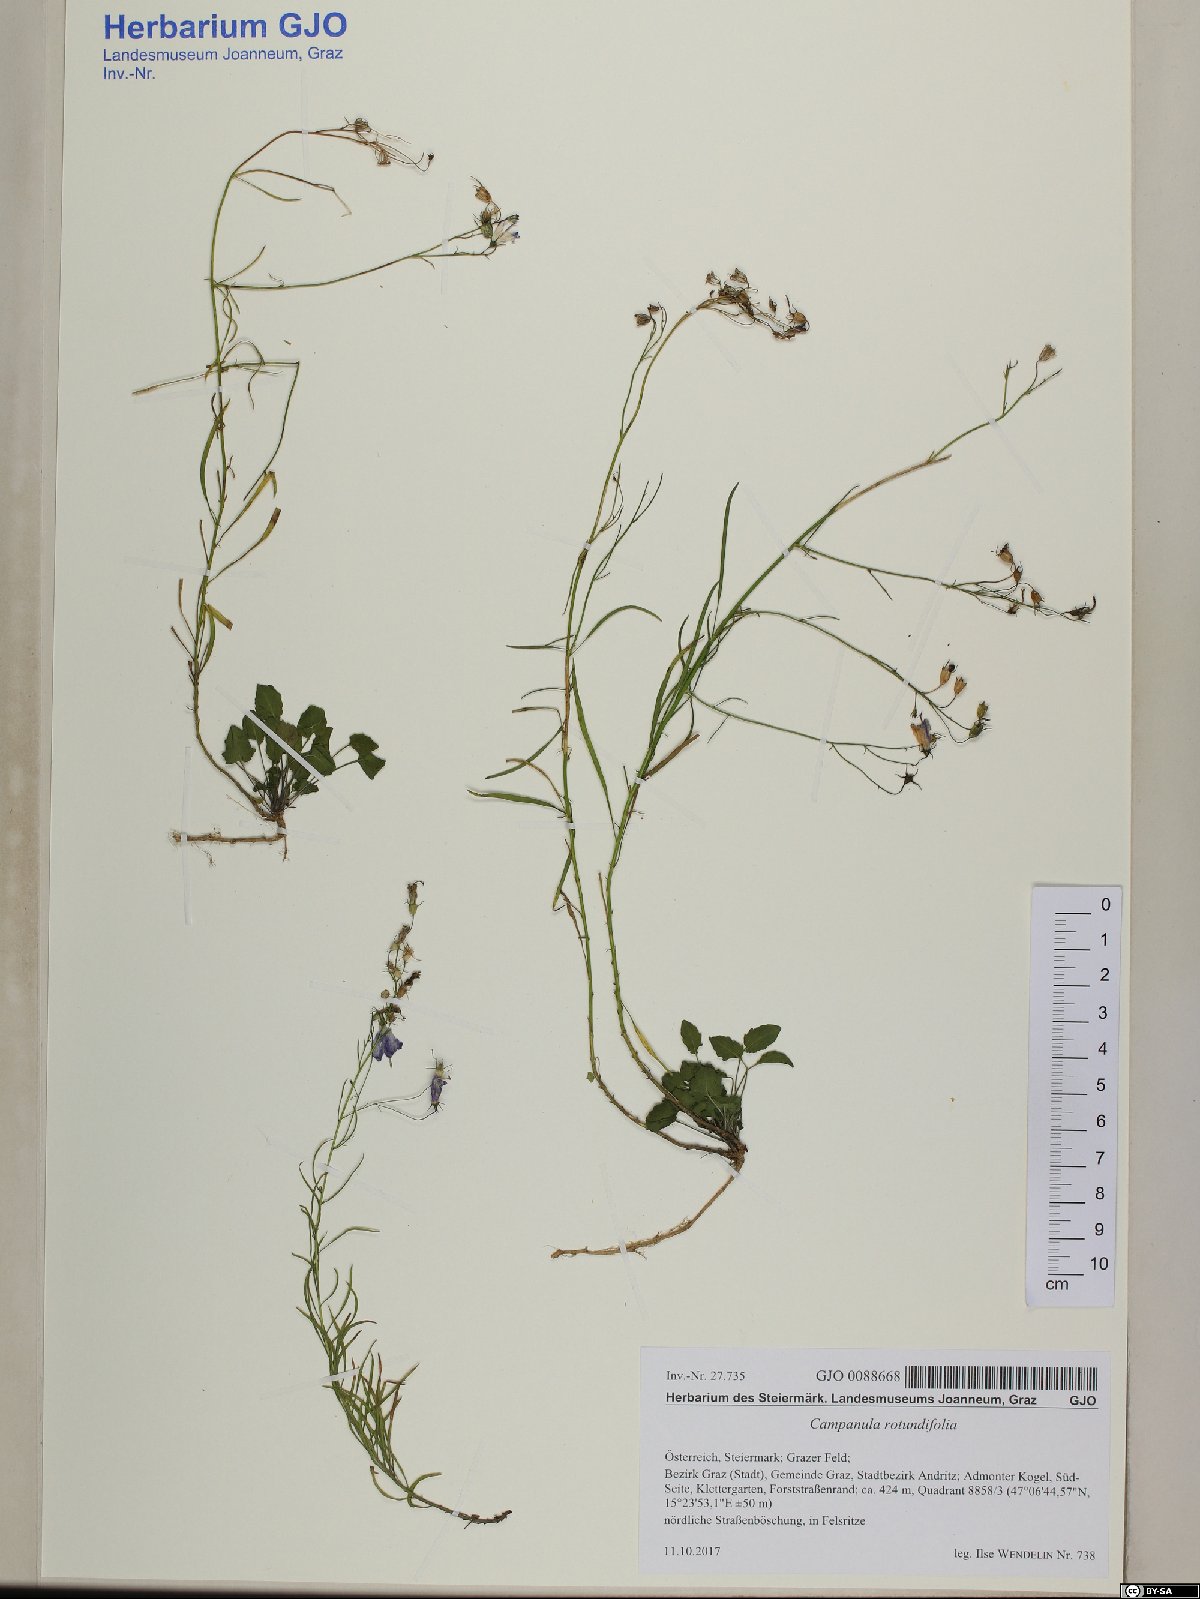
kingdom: Plantae
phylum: Tracheophyta
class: Magnoliopsida
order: Asterales
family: Campanulaceae
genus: Campanula
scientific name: Campanula rotundifolia
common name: Harebell
